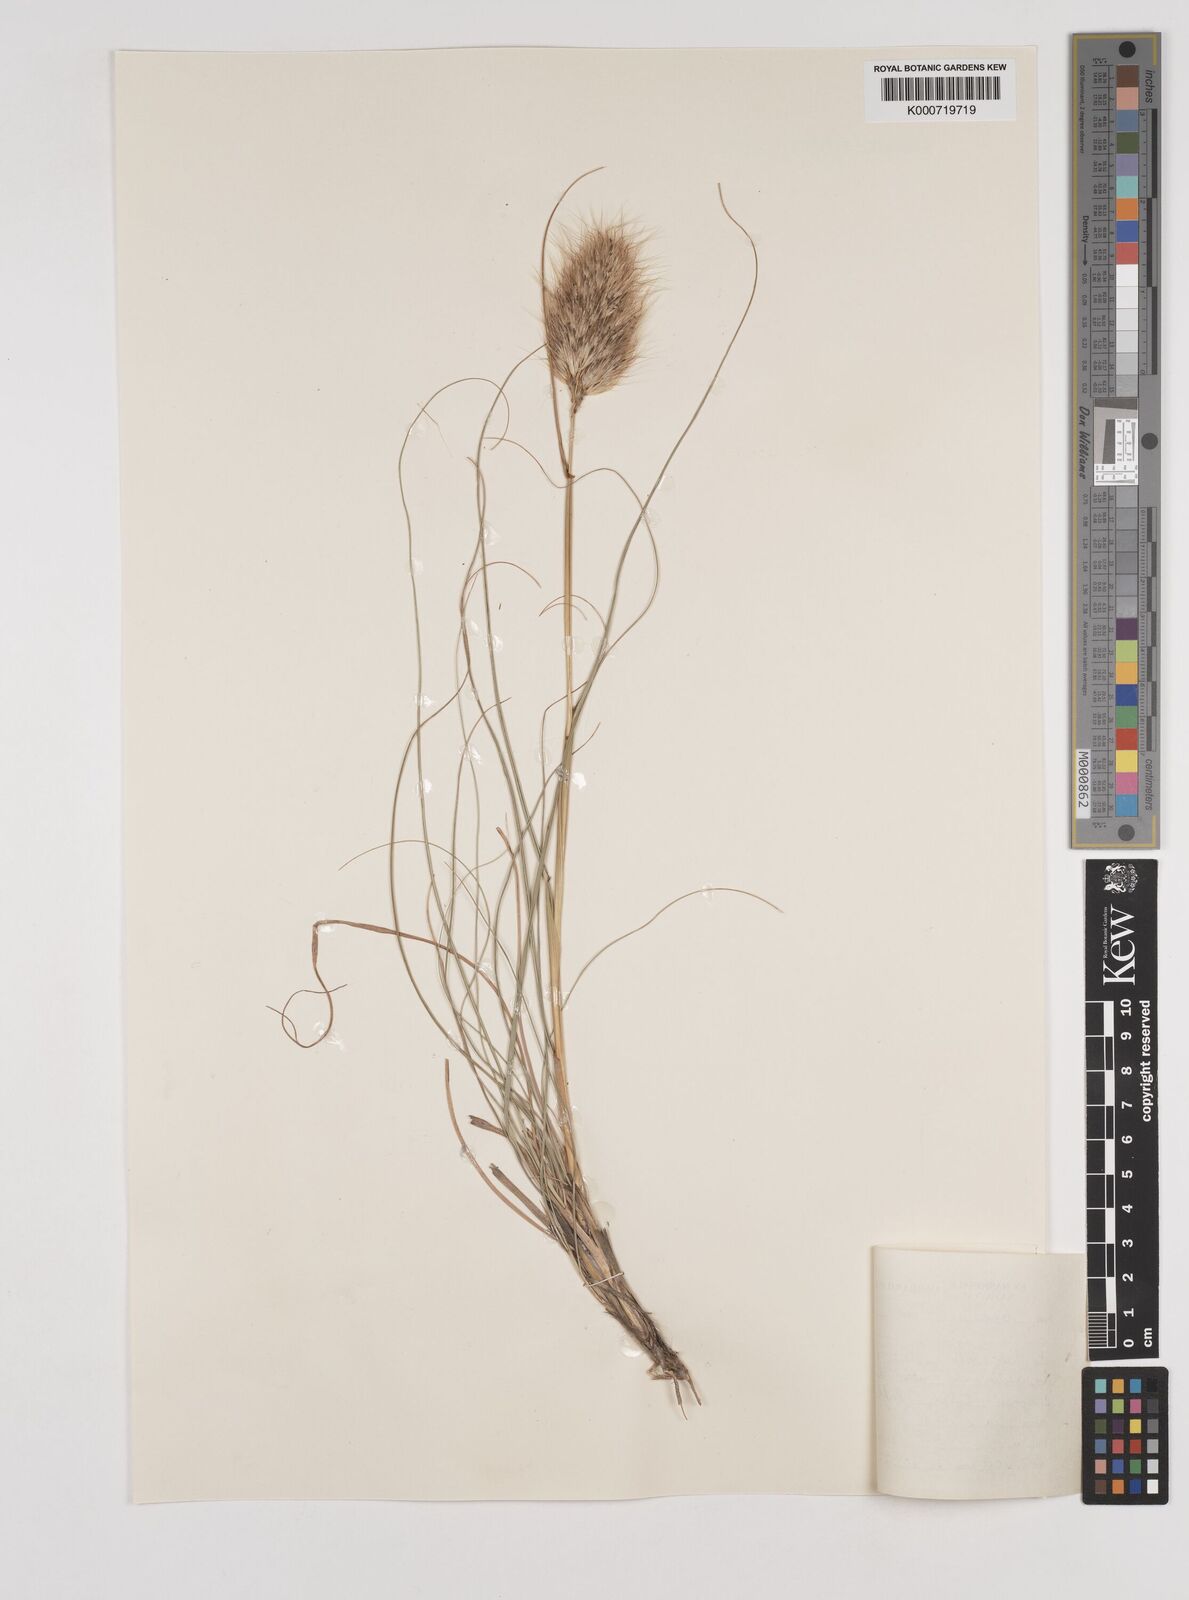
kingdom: Plantae
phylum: Tracheophyta
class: Liliopsida
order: Poales
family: Poaceae
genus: Pentameris
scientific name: Pentameris curvifolia
